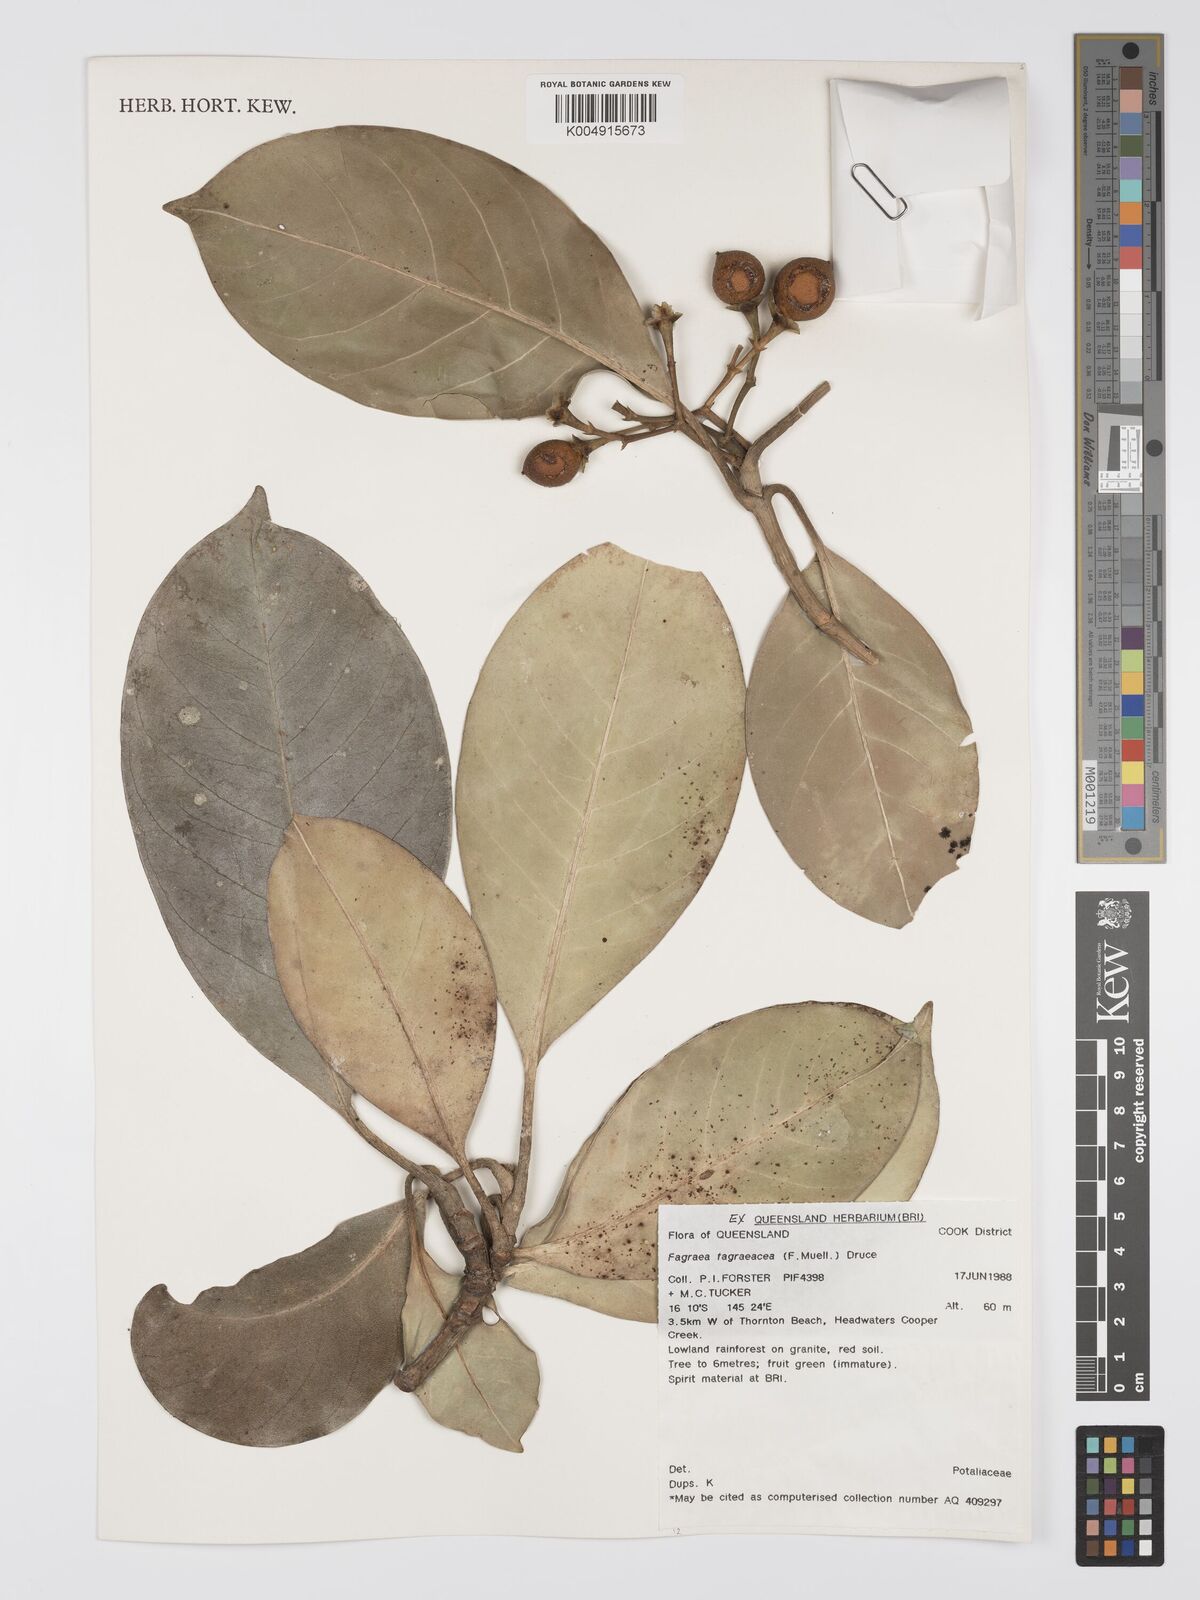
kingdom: Plantae
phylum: Tracheophyta
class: Magnoliopsida
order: Gentianales
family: Gentianaceae
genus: Fagraea
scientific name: Fagraea gracilipes
